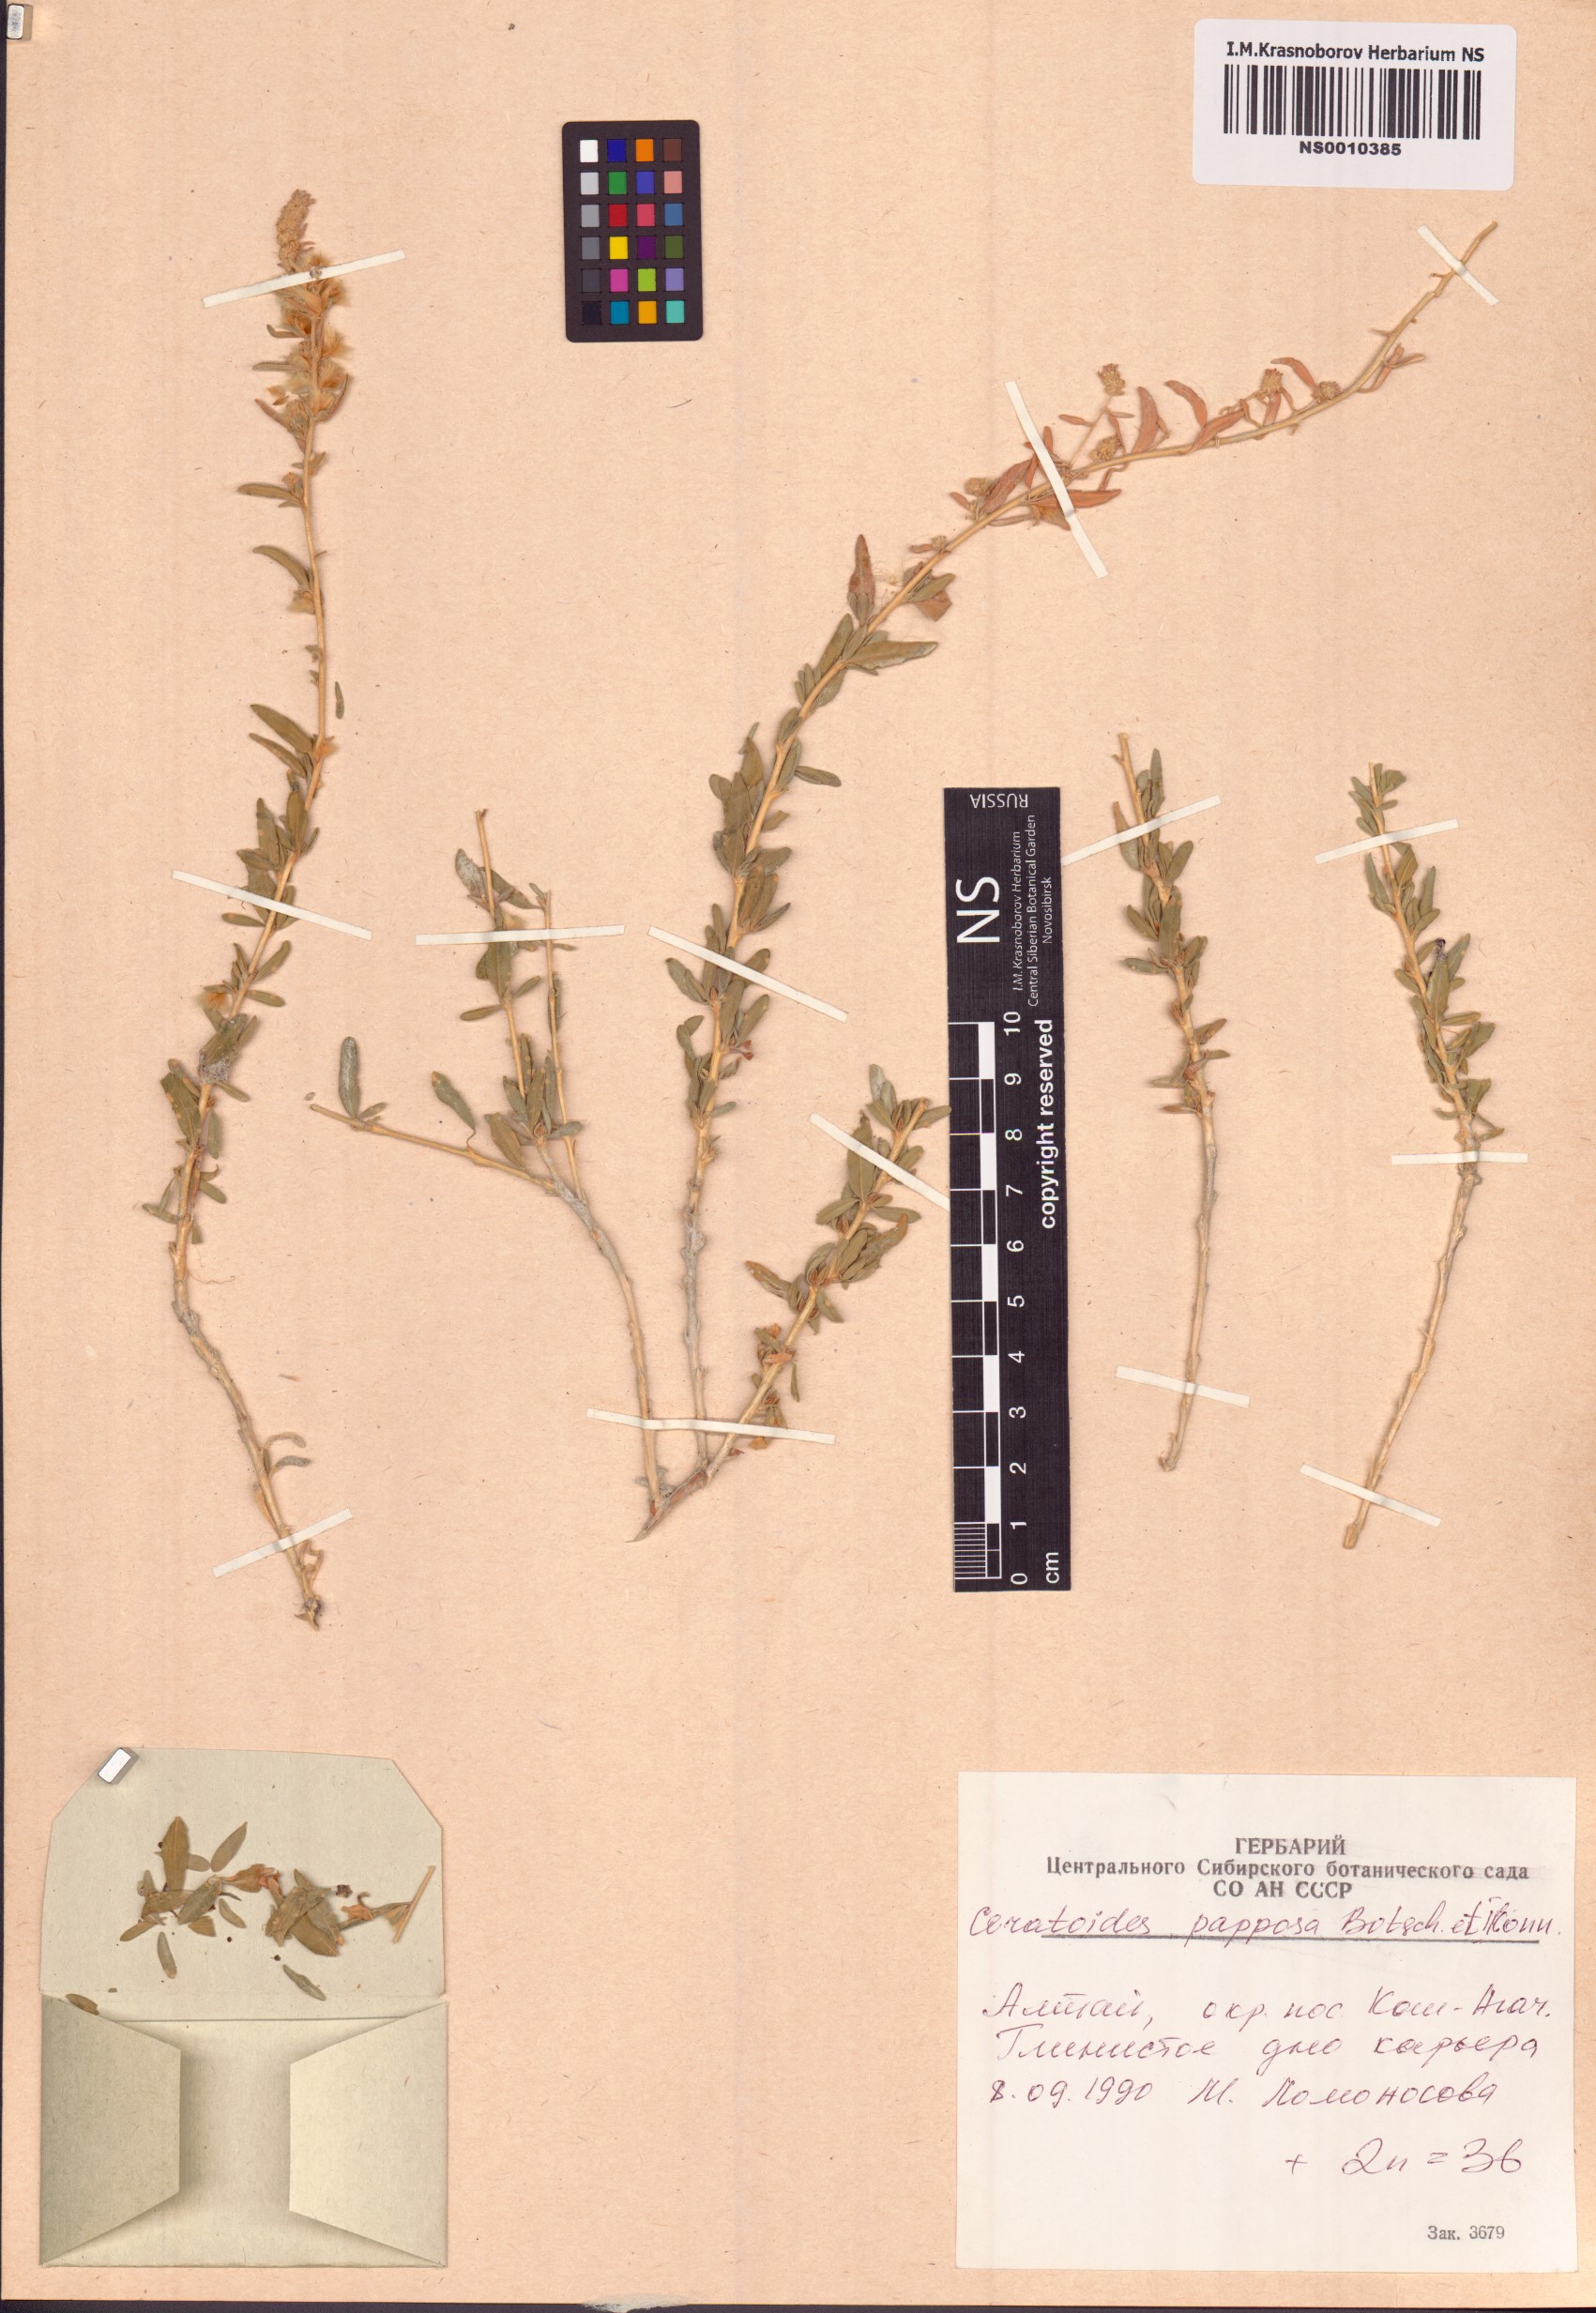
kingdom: Plantae
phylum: Tracheophyta
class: Magnoliopsida
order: Caryophyllales
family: Amaranthaceae
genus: Krascheninnikovia
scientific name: Krascheninnikovia ceratoides
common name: Pamirian winterfat
